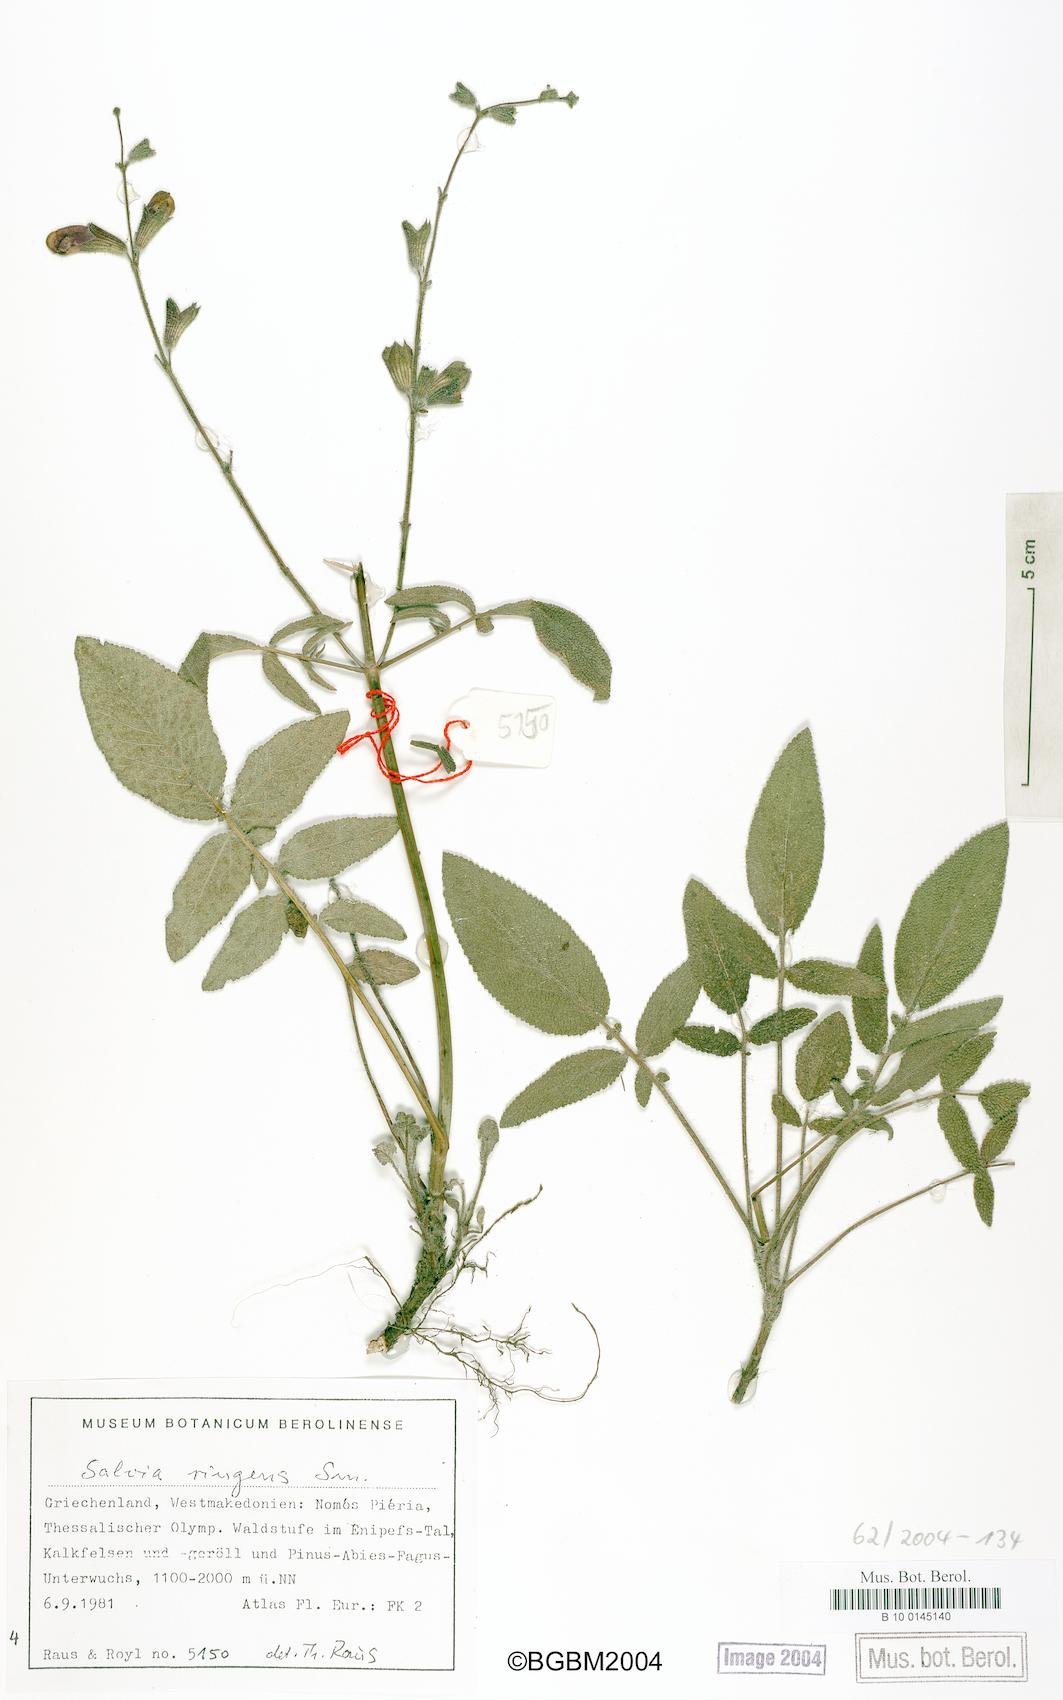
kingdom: Plantae
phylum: Tracheophyta
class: Magnoliopsida
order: Lamiales
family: Lamiaceae
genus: Salvia
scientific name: Salvia ringens
